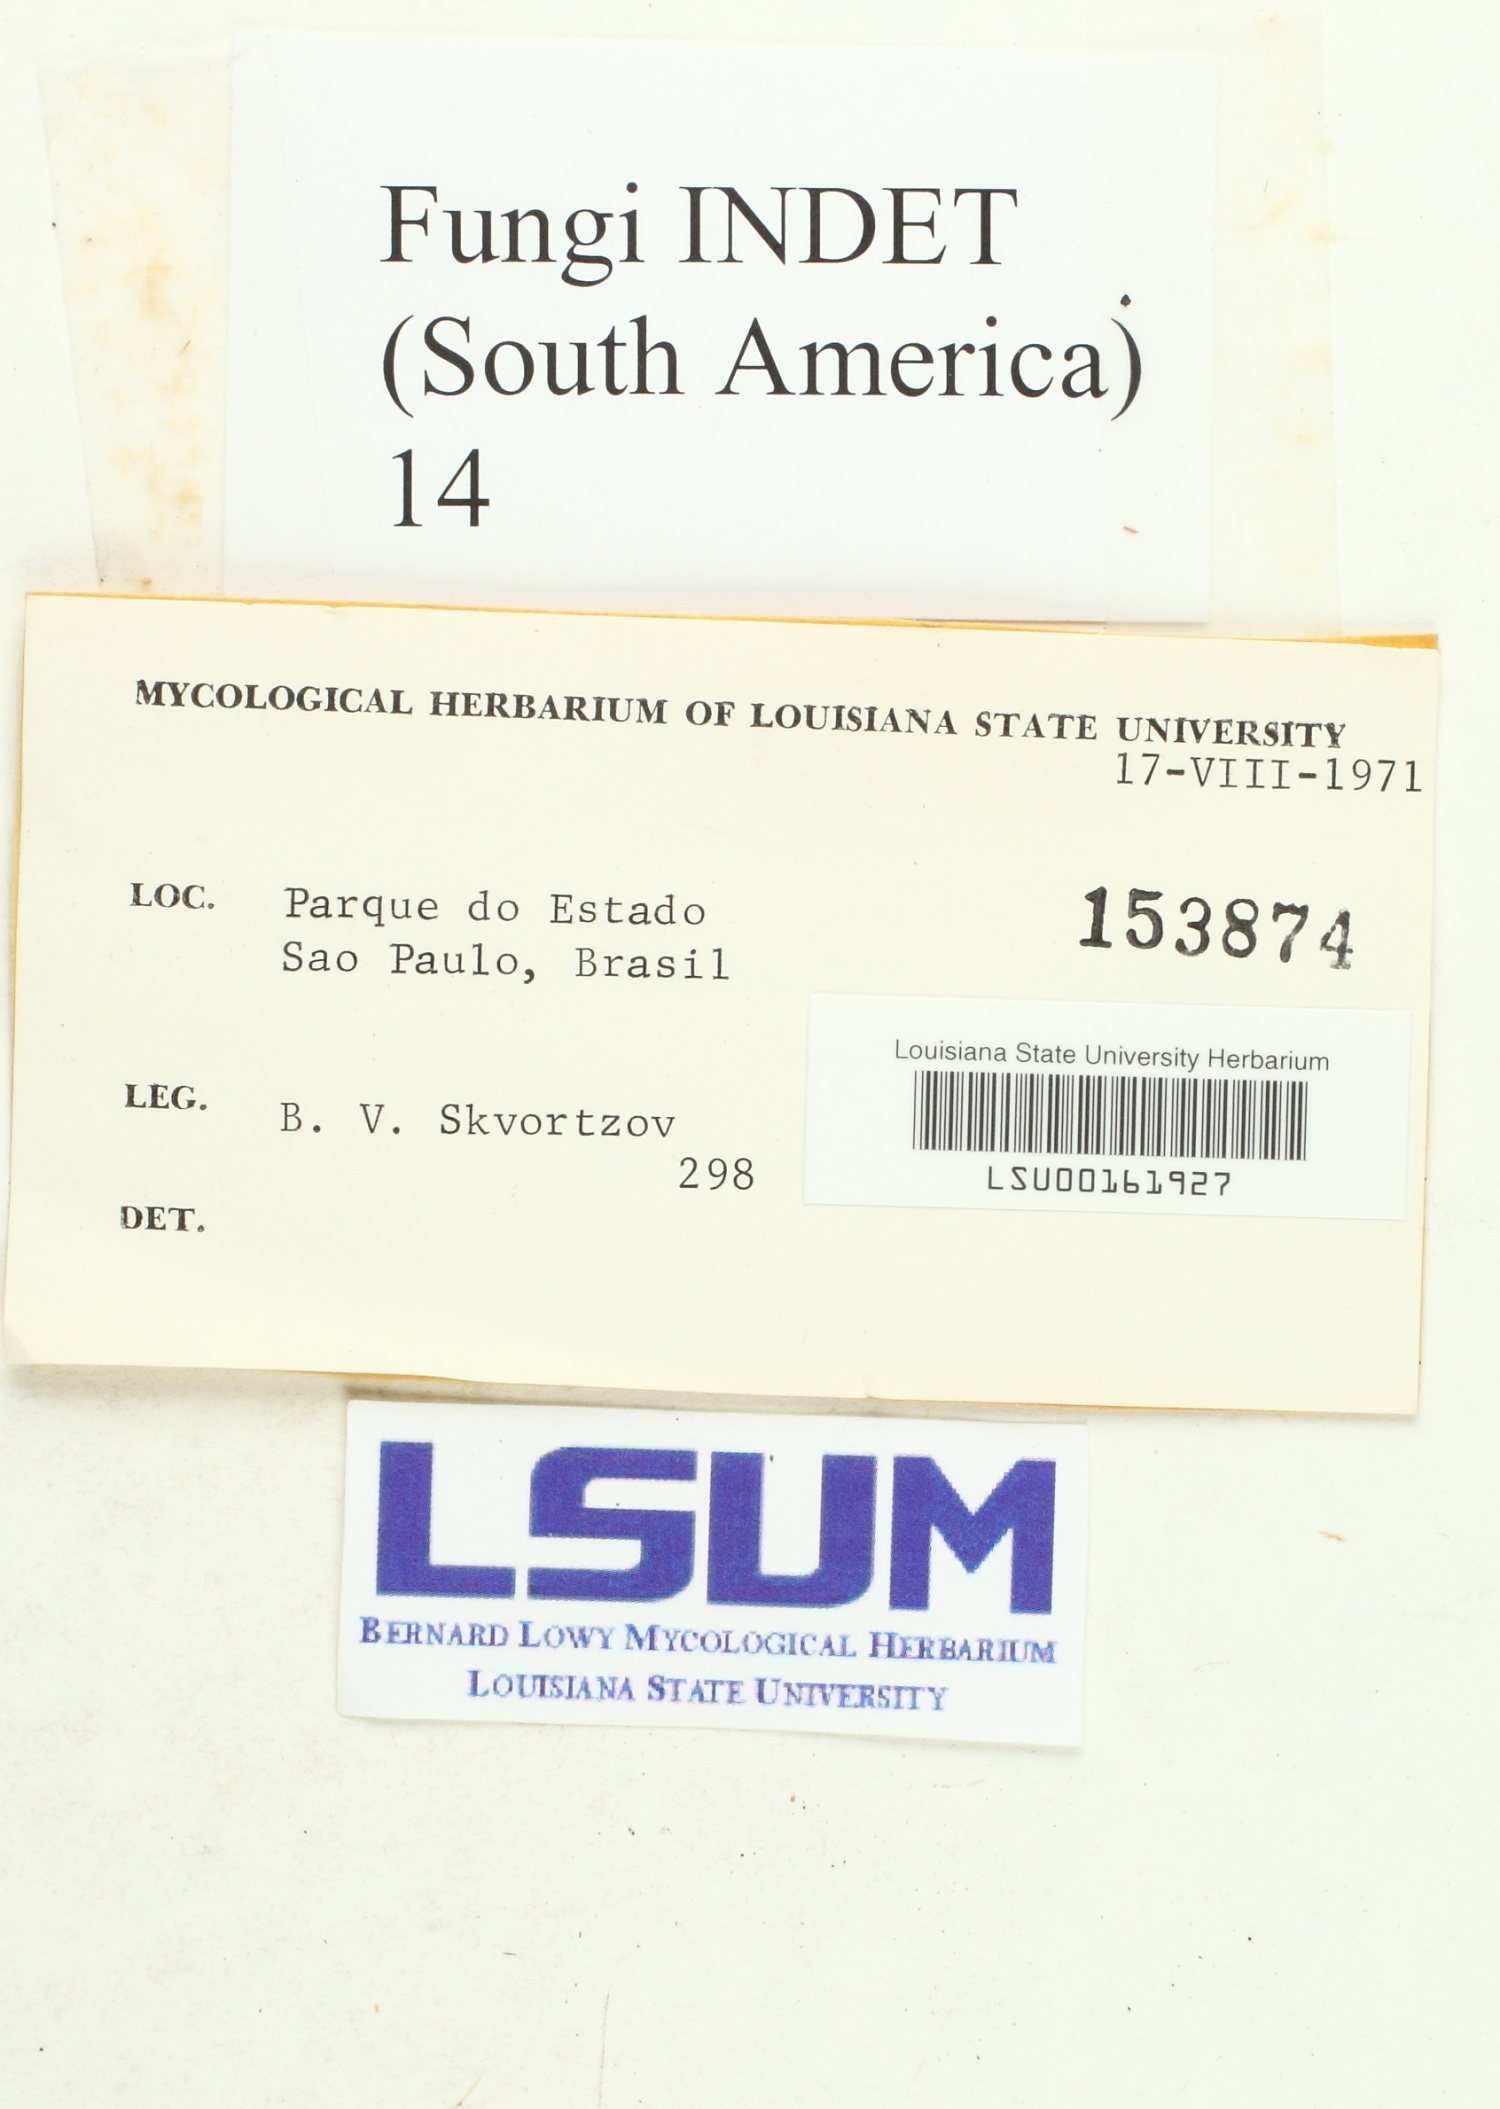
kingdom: Fungi
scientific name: Fungi
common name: Fungi
